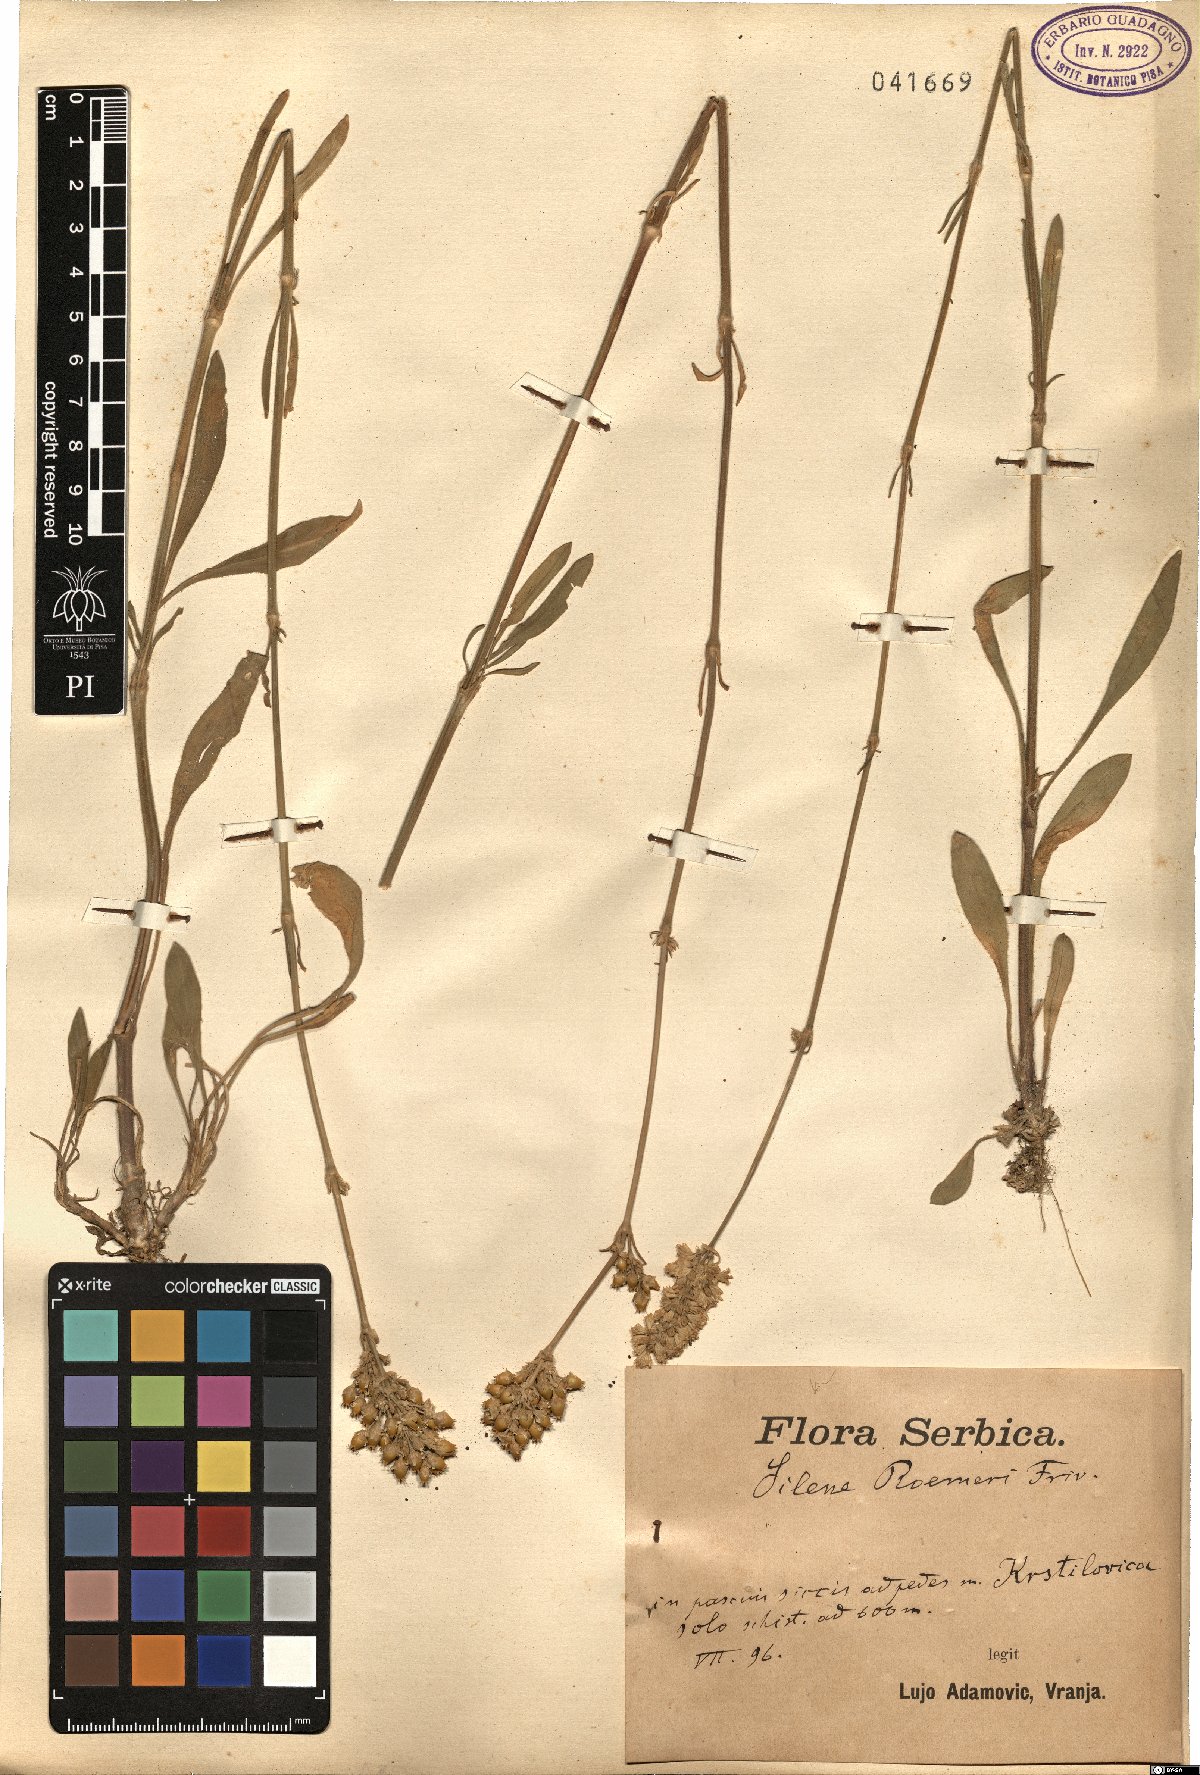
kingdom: Plantae
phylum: Tracheophyta
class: Magnoliopsida
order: Caryophyllales
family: Caryophyllaceae
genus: Silene
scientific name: Silene roemeri
